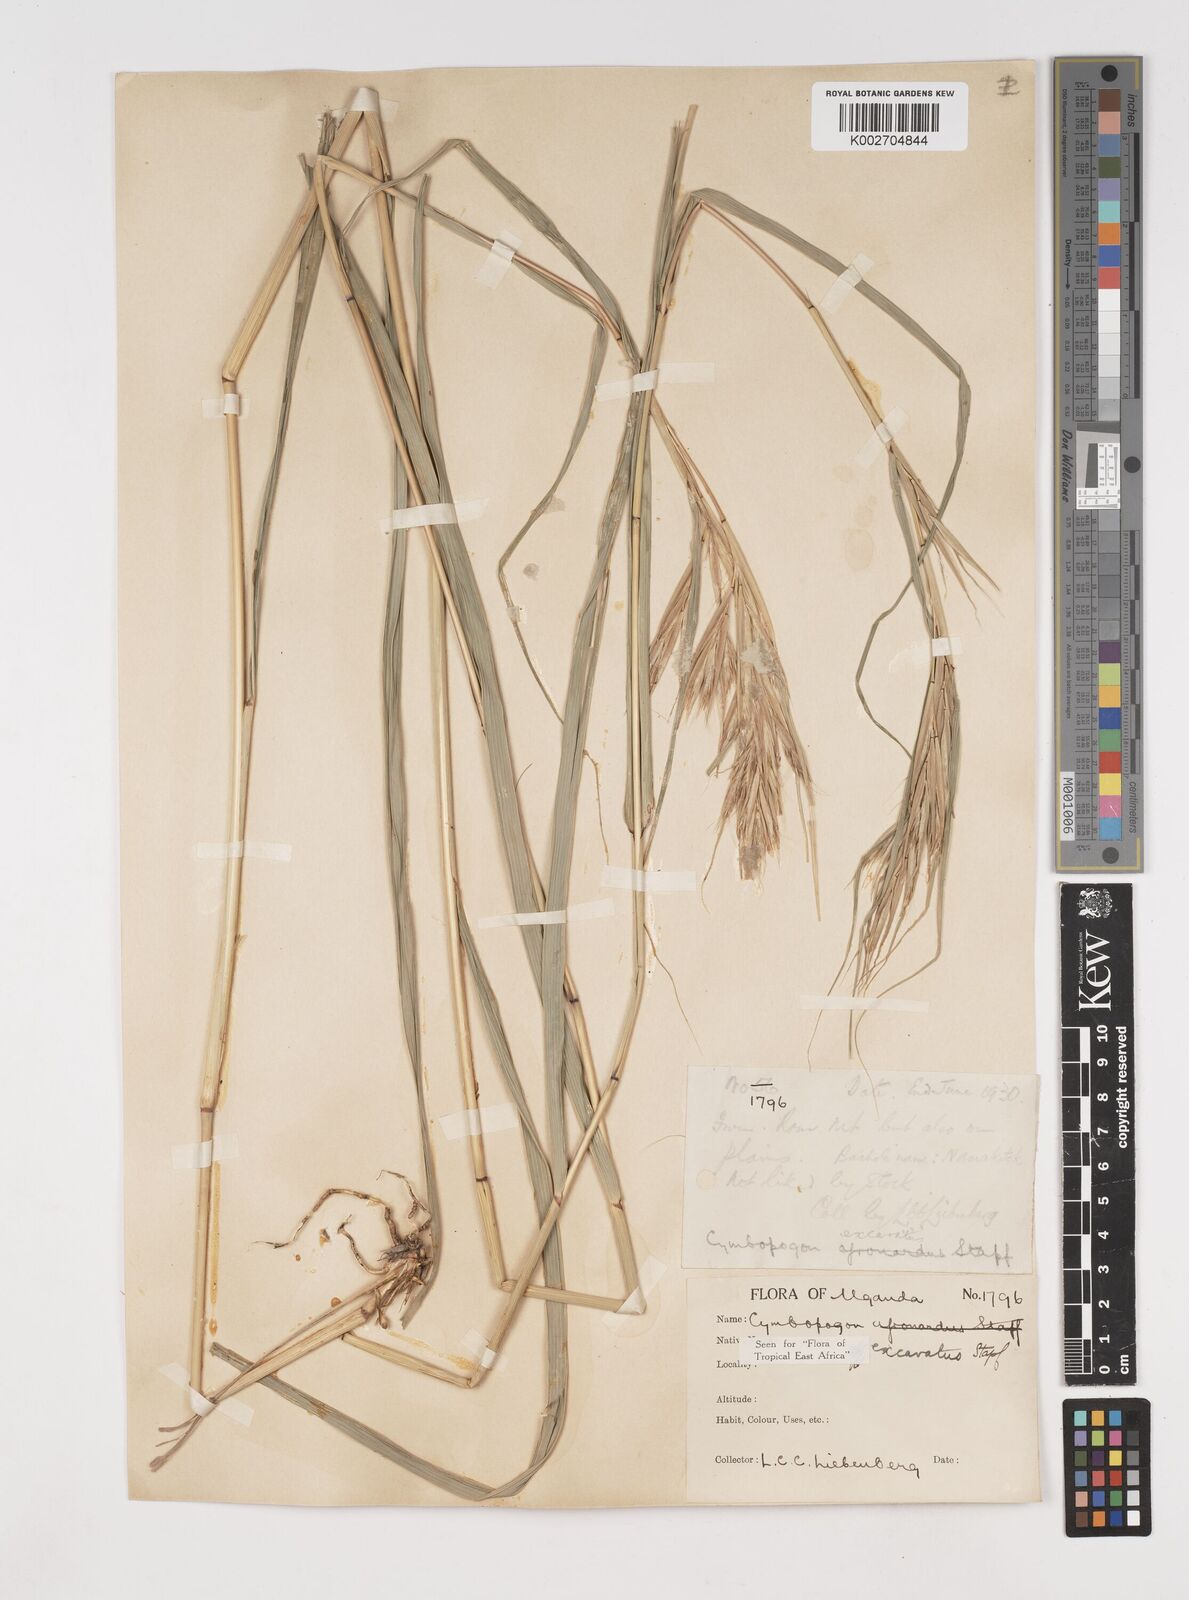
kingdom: Plantae
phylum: Tracheophyta
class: Liliopsida
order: Poales
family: Poaceae
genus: Cymbopogon
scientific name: Cymbopogon caesius
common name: Kachi grass
